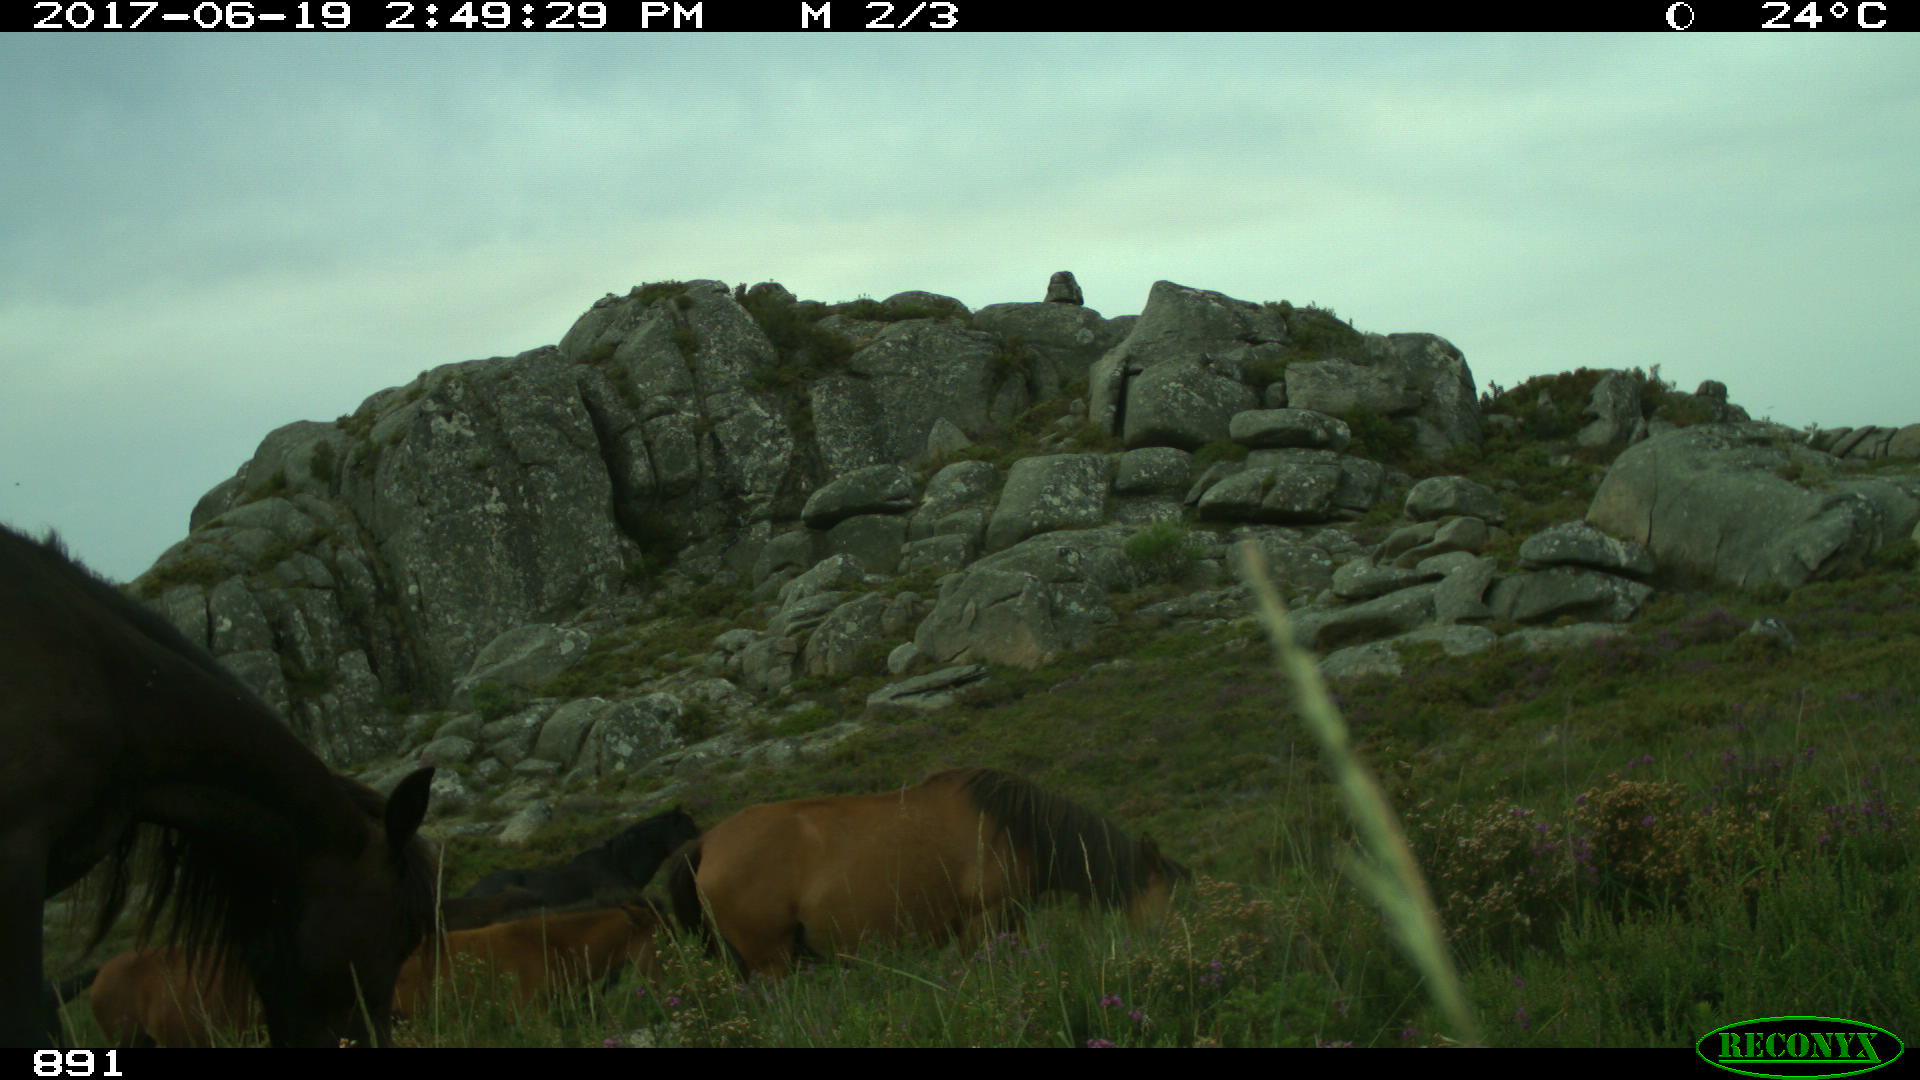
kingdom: Animalia
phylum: Chordata
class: Mammalia
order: Perissodactyla
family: Equidae
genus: Equus
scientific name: Equus caballus
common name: Horse
